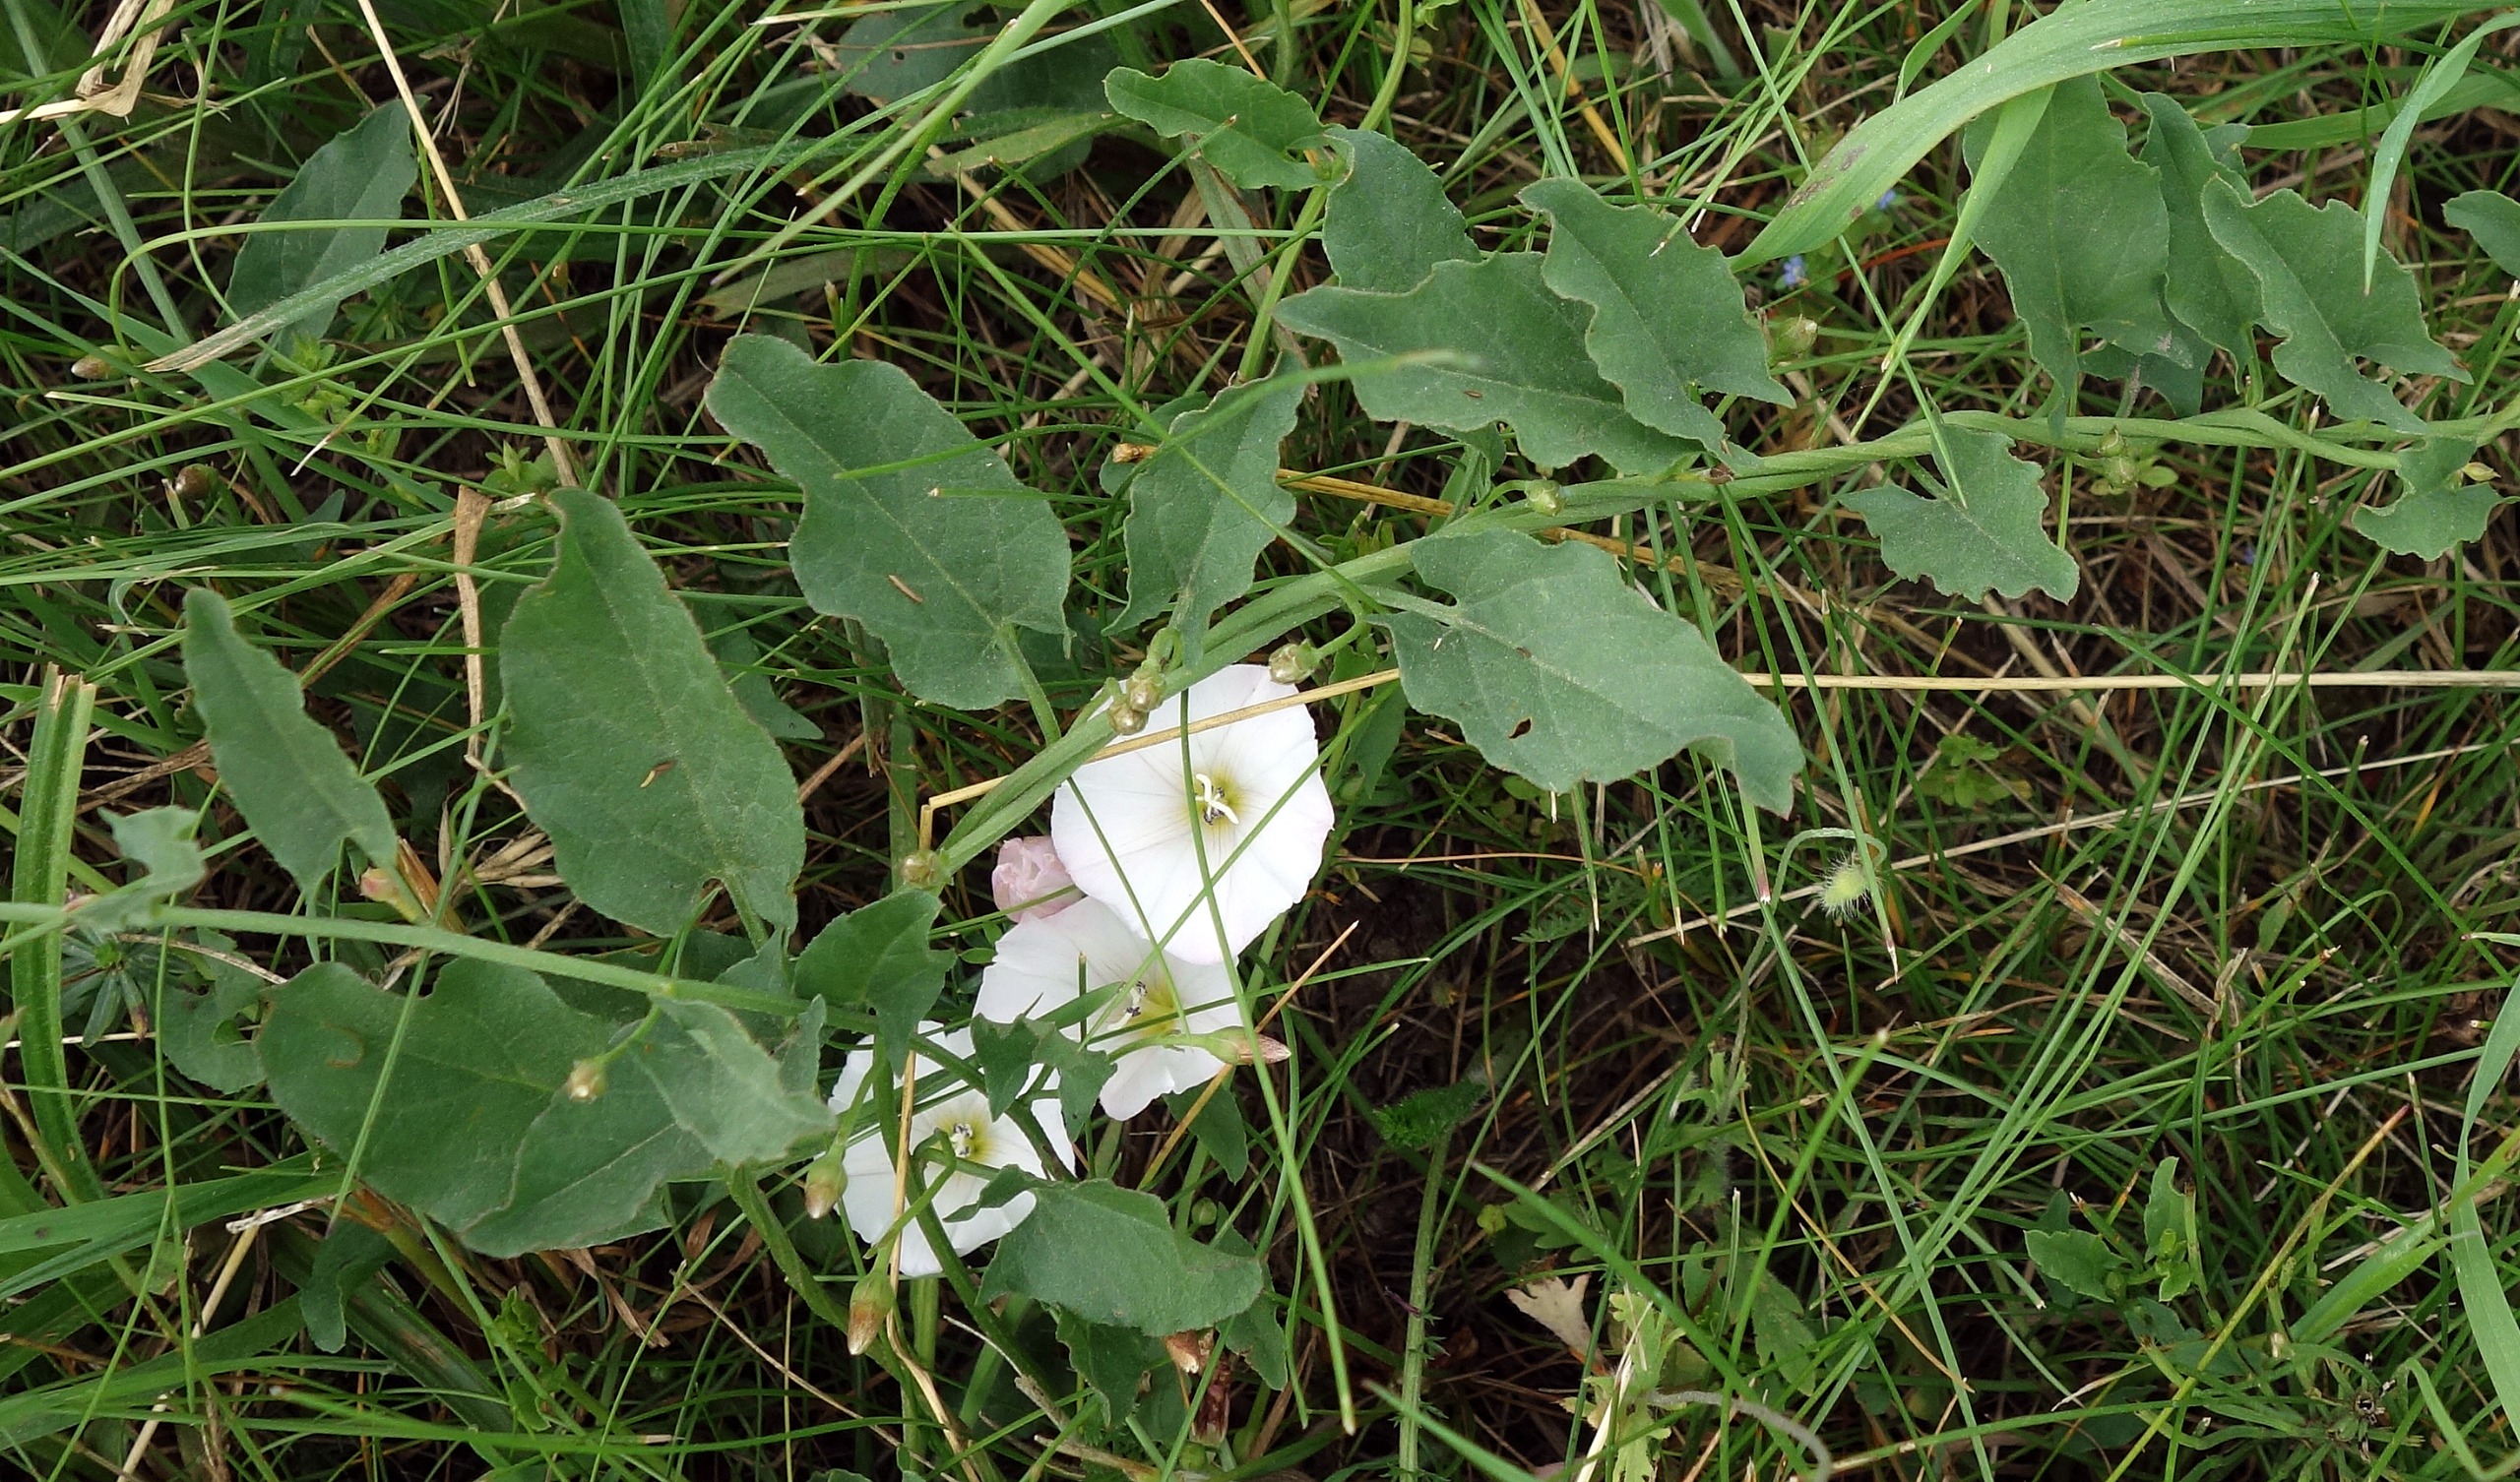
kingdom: Plantae
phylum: Tracheophyta
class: Magnoliopsida
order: Solanales
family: Convolvulaceae
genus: Convolvulus
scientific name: Convolvulus arvensis
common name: Ager-snerle
